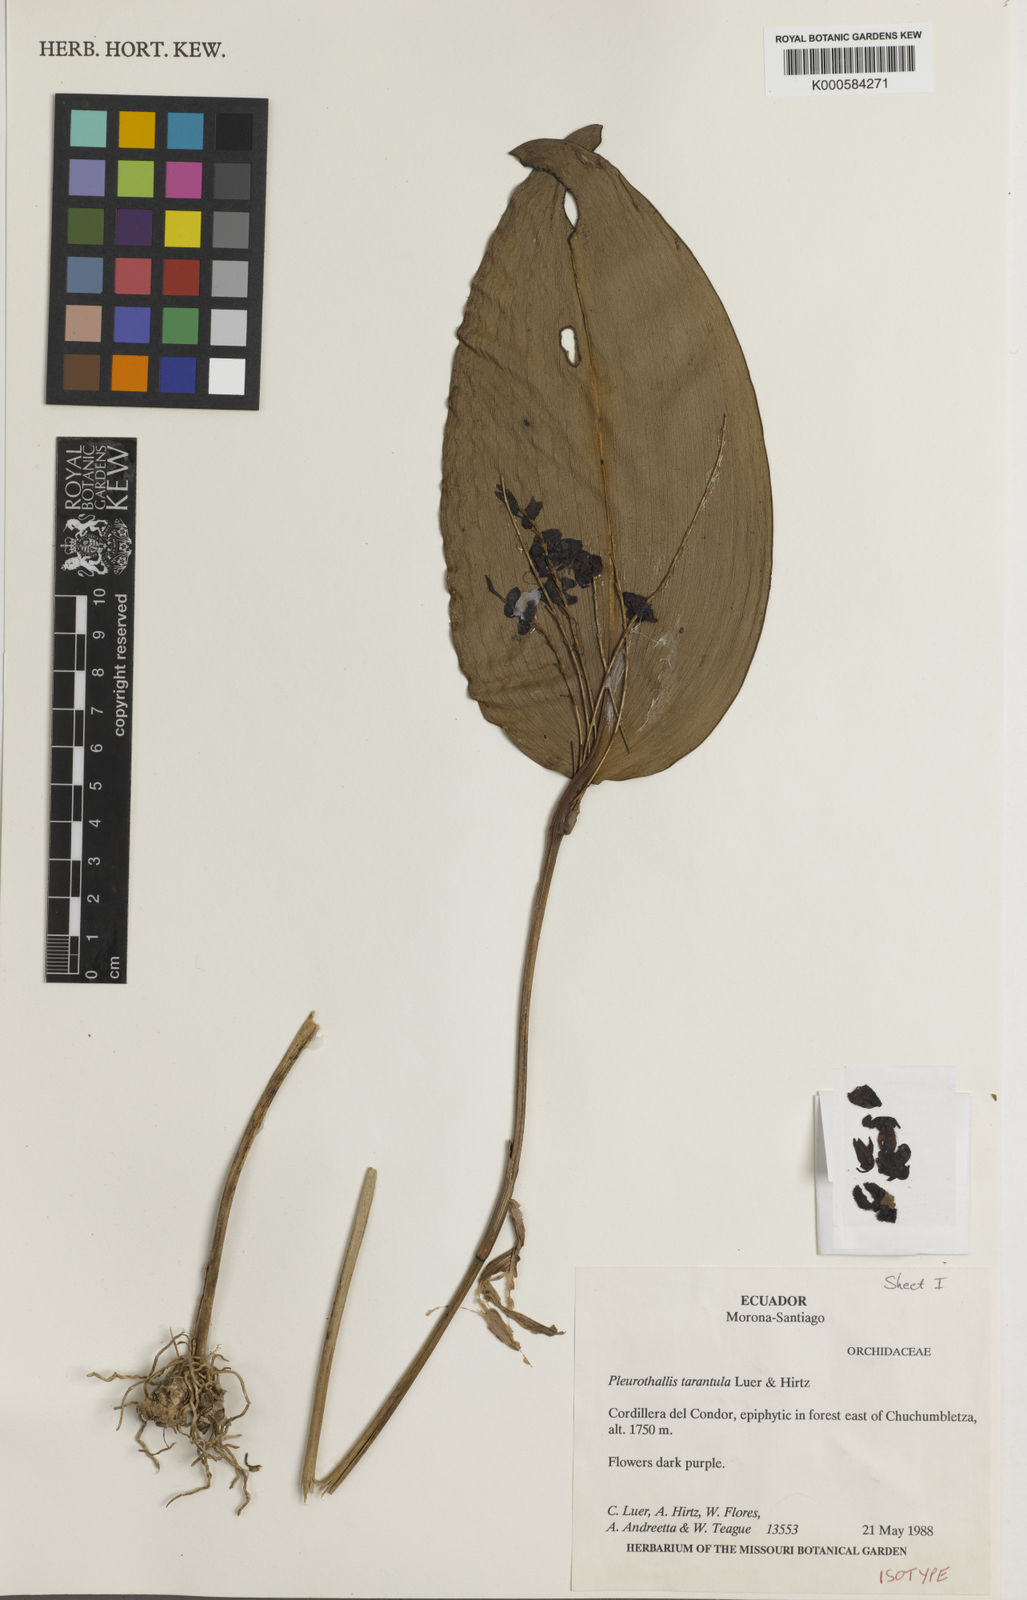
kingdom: Plantae
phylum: Tracheophyta
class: Liliopsida
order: Asparagales
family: Orchidaceae
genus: Stelis
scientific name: Stelis tarantula
